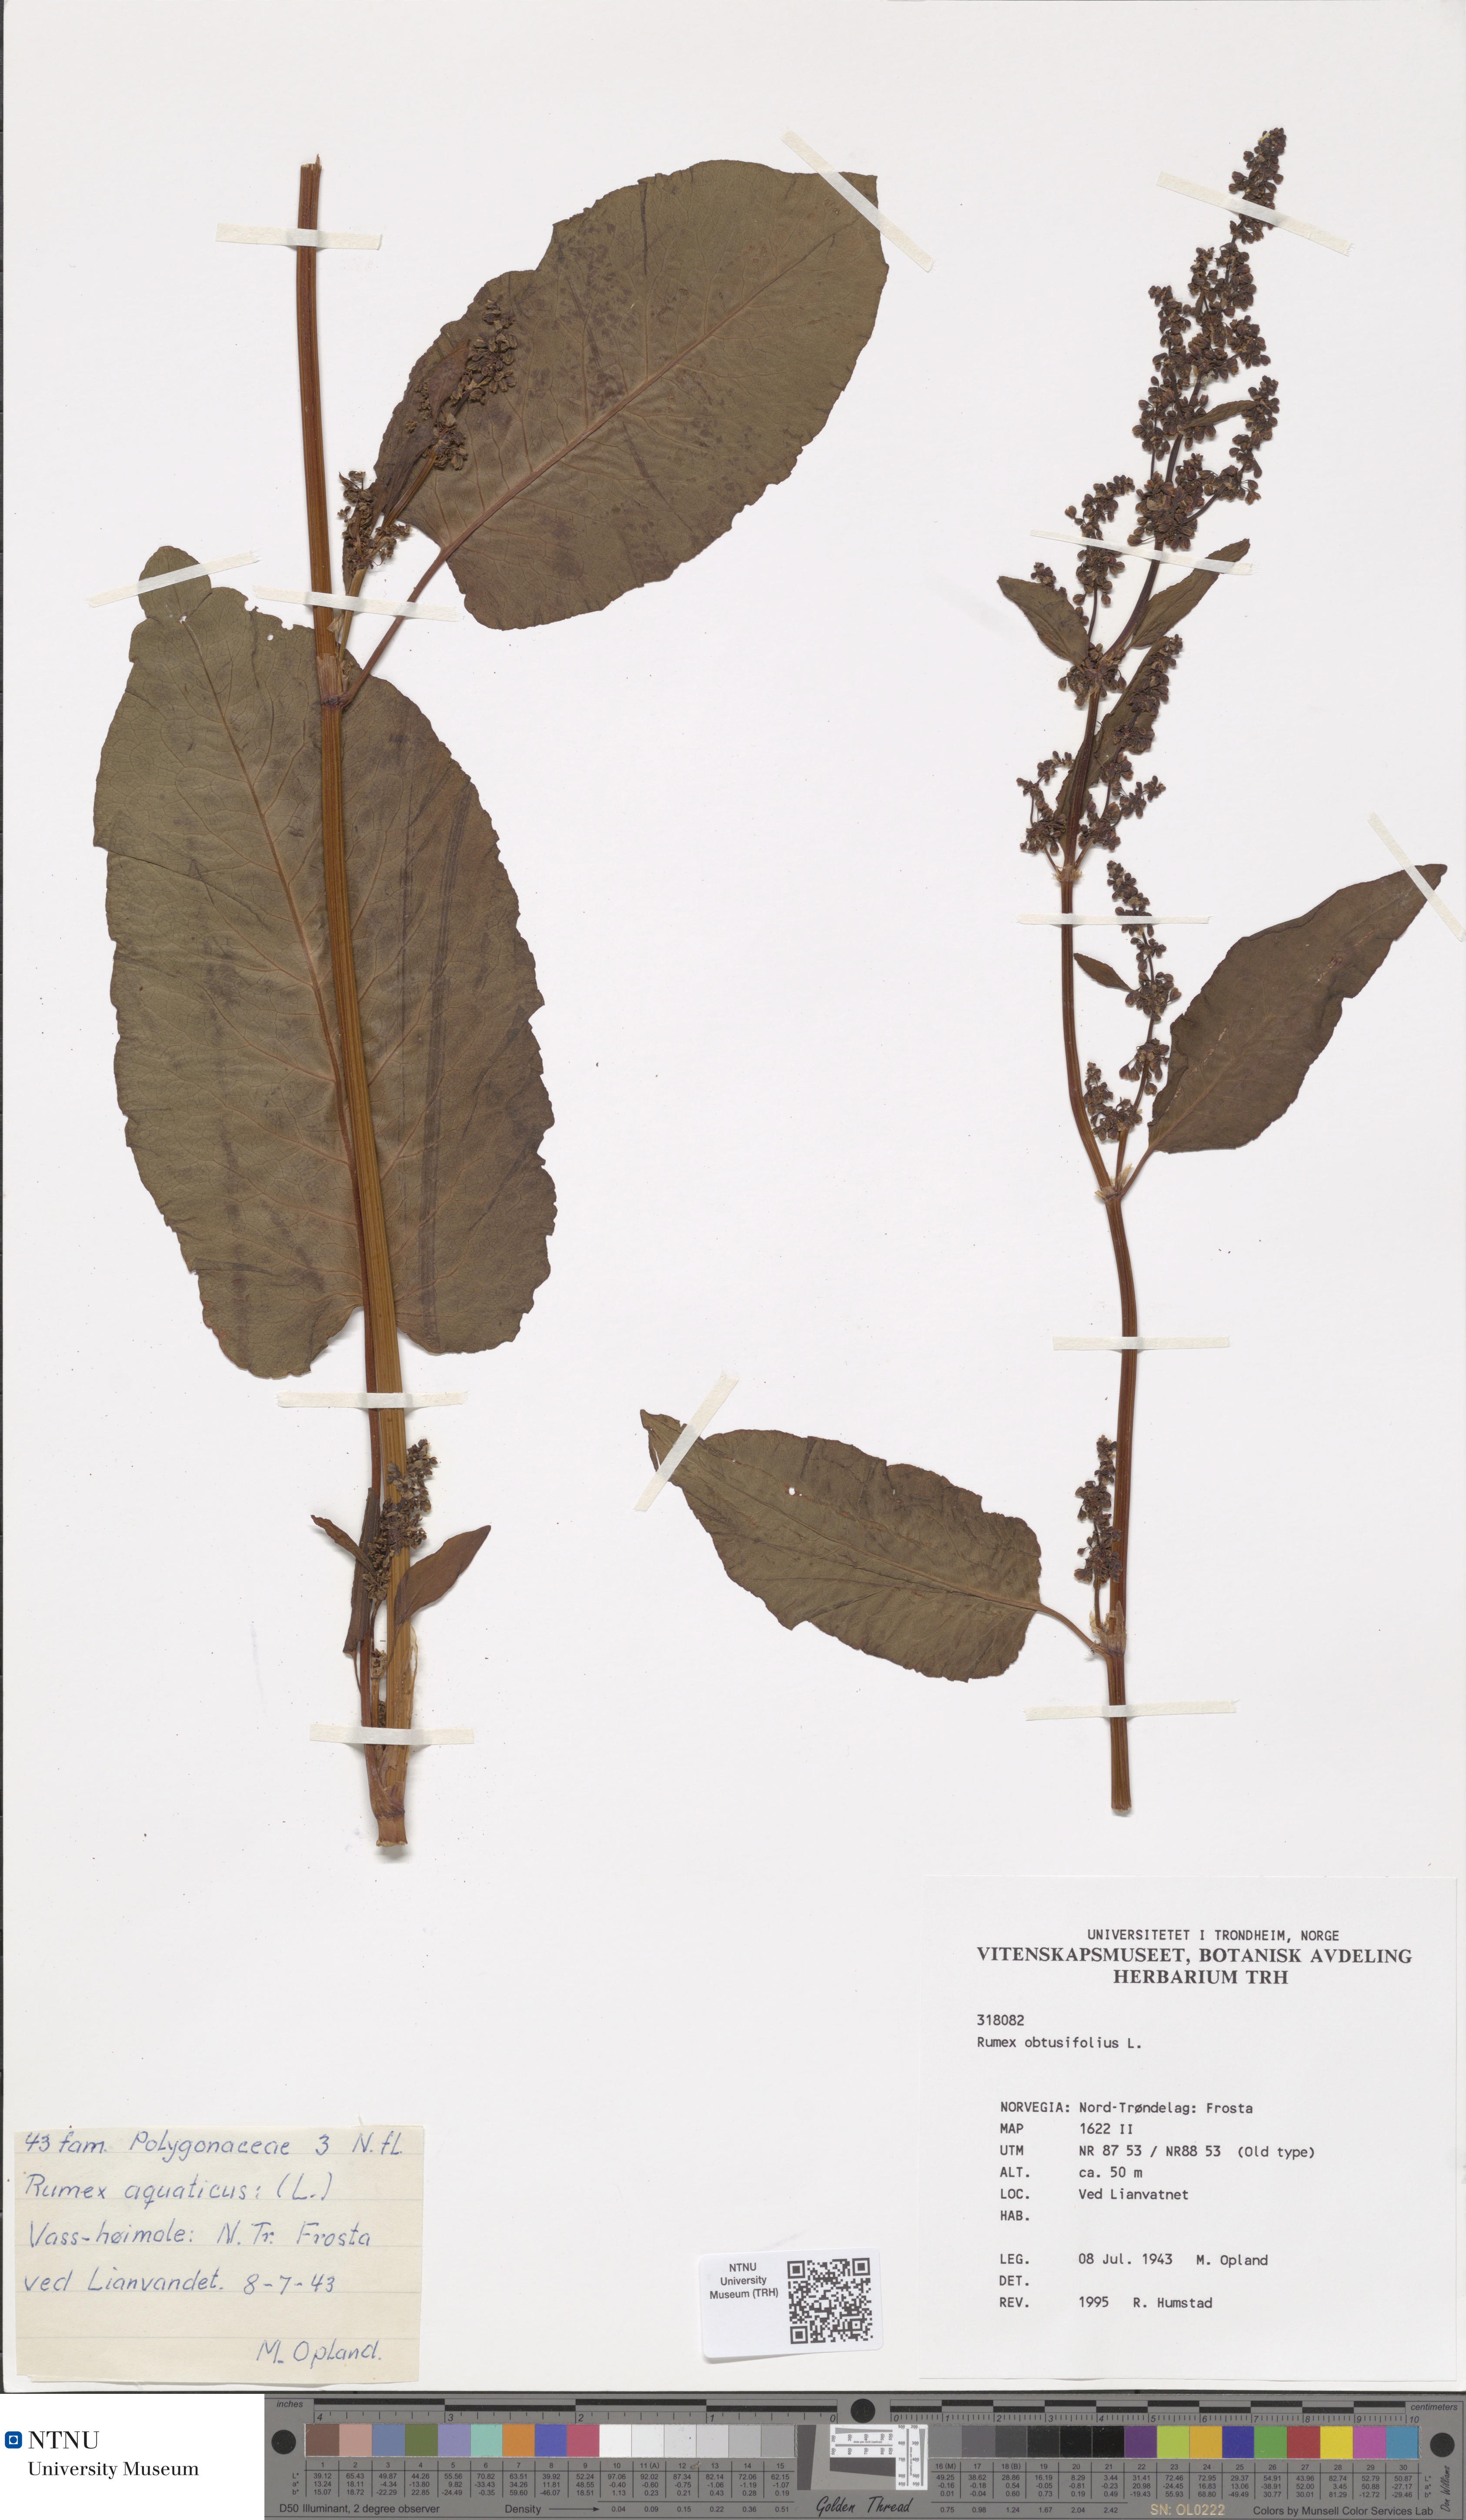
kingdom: Plantae
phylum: Tracheophyta
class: Magnoliopsida
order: Caryophyllales
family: Polygonaceae
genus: Rumex
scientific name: Rumex obtusifolius
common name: Bitter dock
